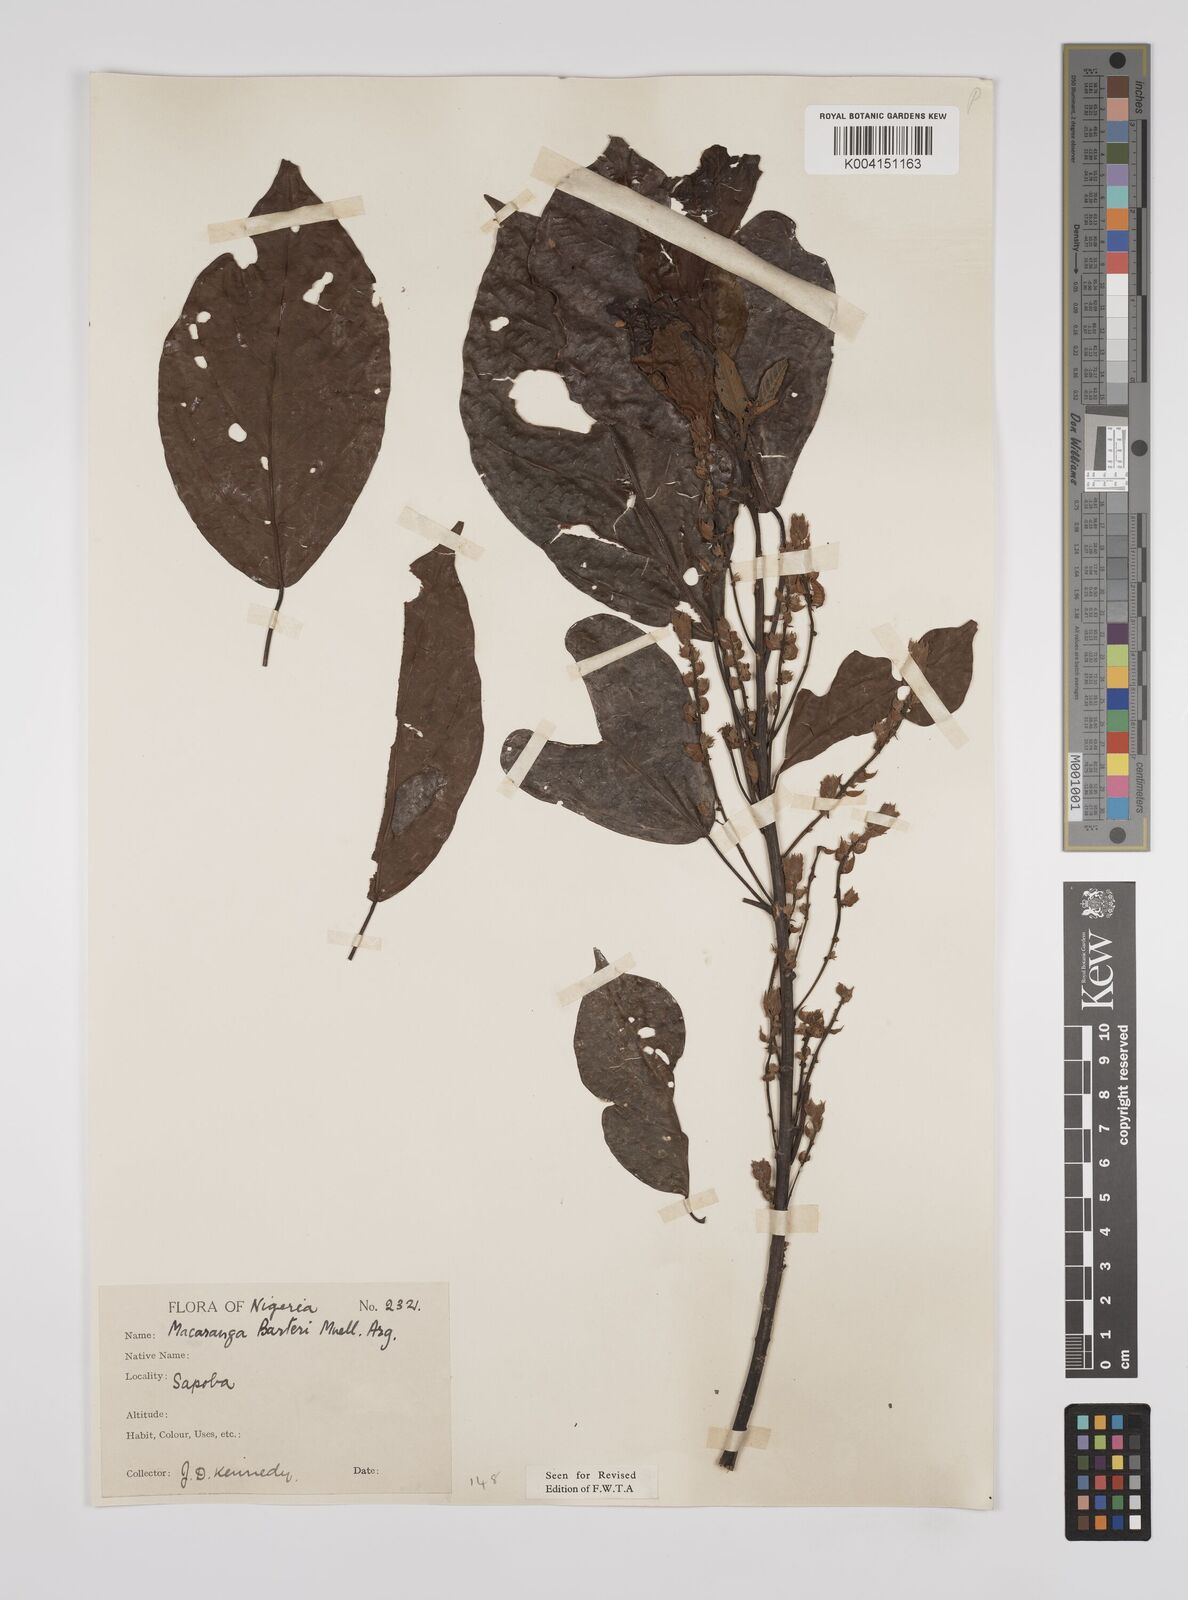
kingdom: Plantae
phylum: Tracheophyta
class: Magnoliopsida
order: Malpighiales
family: Euphorbiaceae
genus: Macaranga
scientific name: Macaranga barteri
